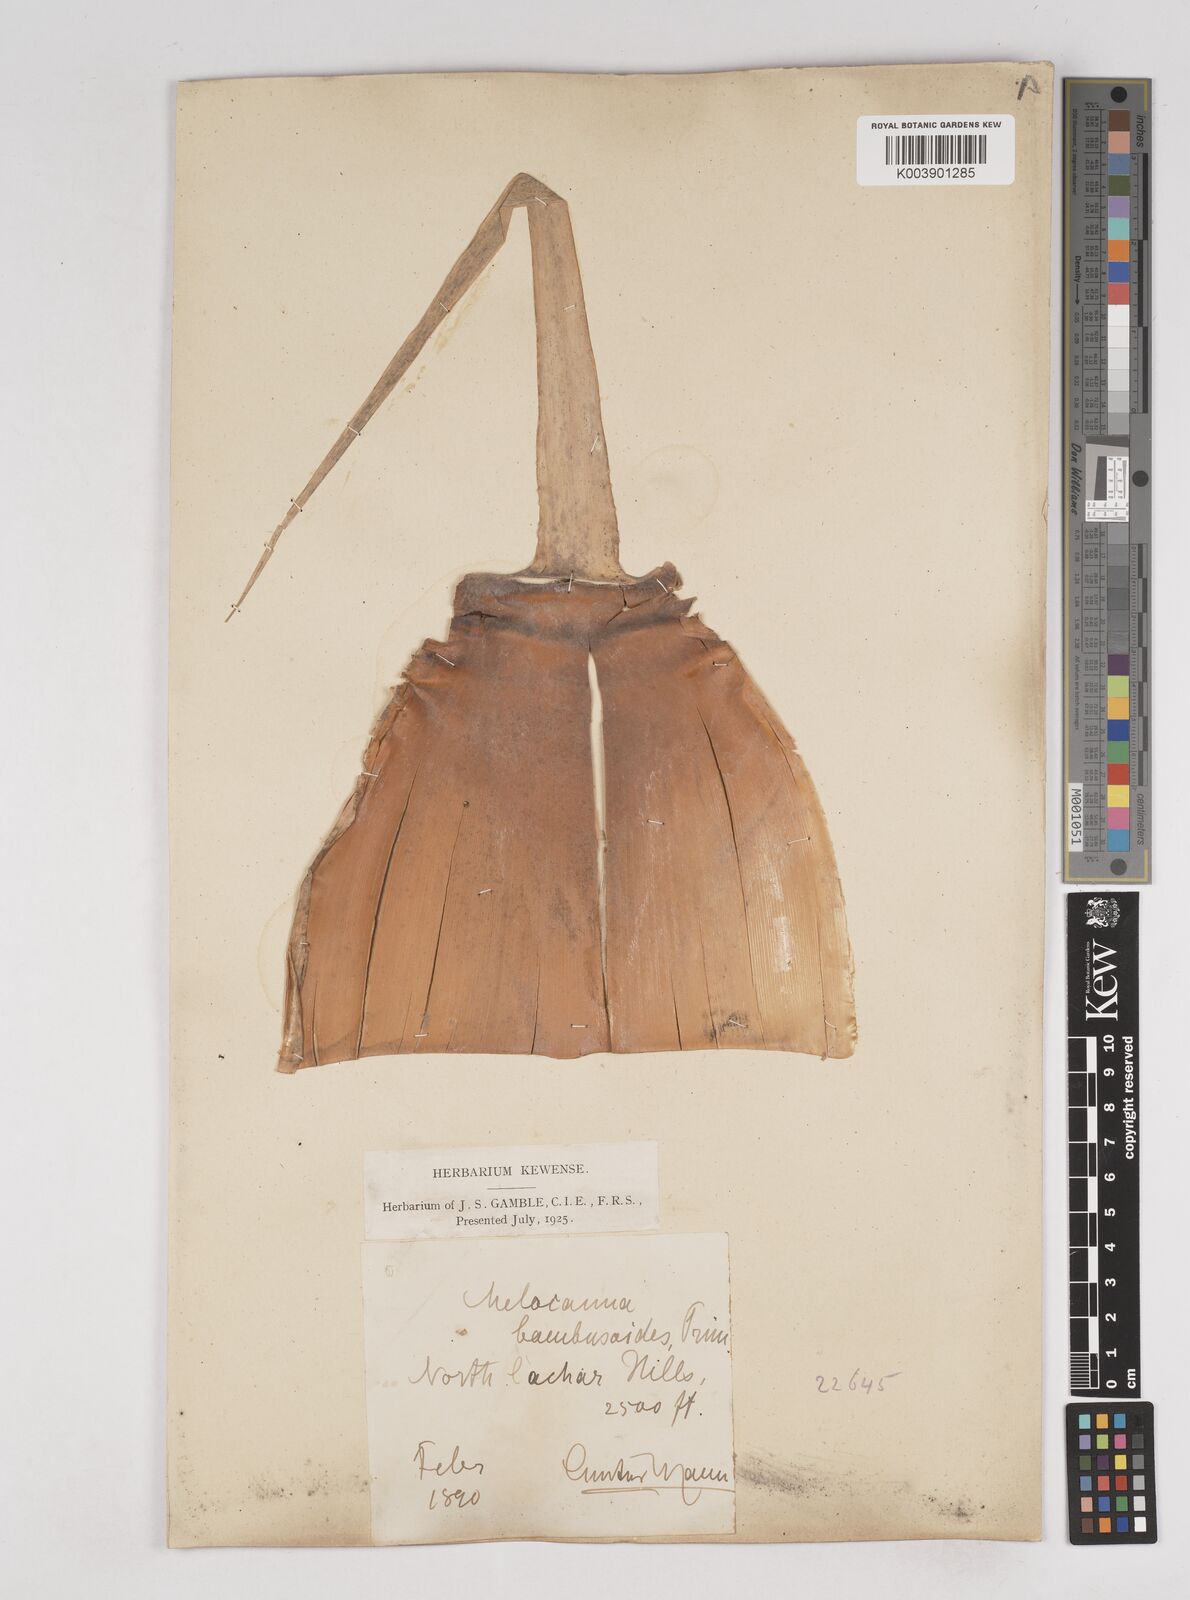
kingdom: Plantae
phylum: Tracheophyta
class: Liliopsida
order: Poales
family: Poaceae
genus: Melocanna
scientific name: Melocanna baccifera
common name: Berry bamboo
